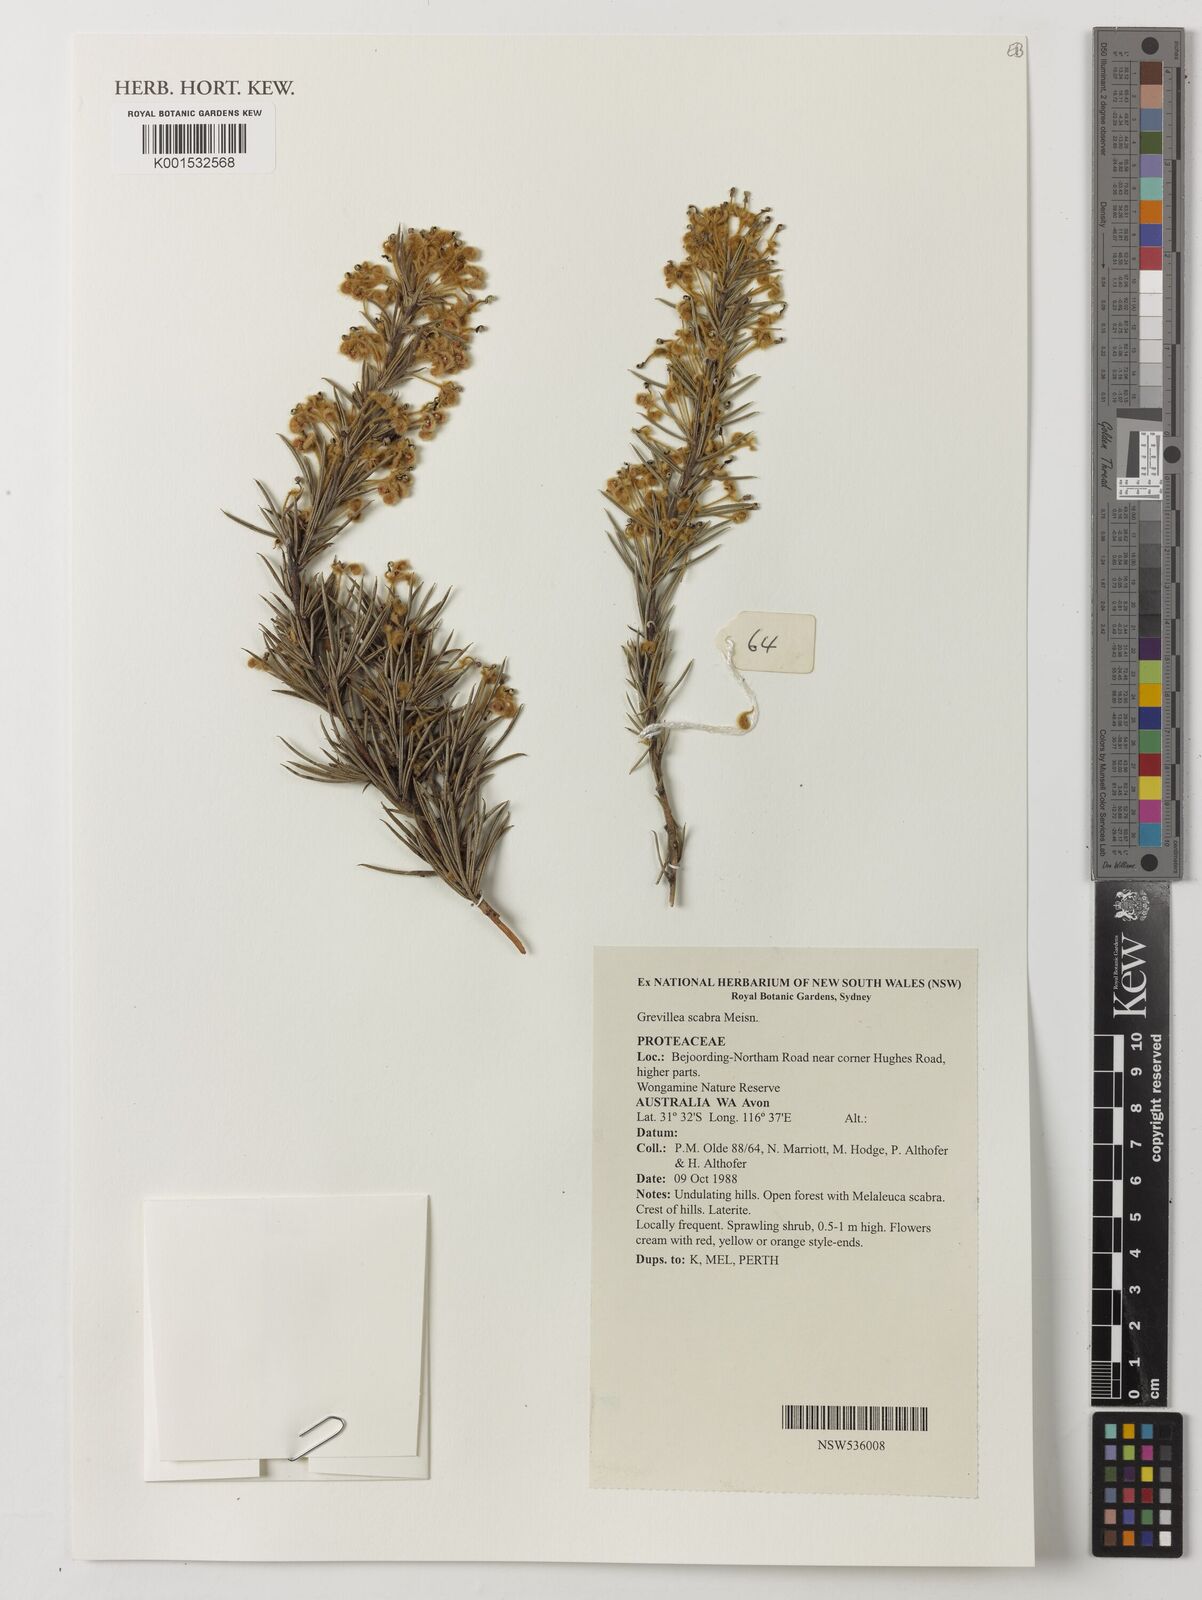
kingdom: Plantae
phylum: Tracheophyta
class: Magnoliopsida
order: Proteales
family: Proteaceae
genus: Grevillea
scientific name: Grevillea scabra
